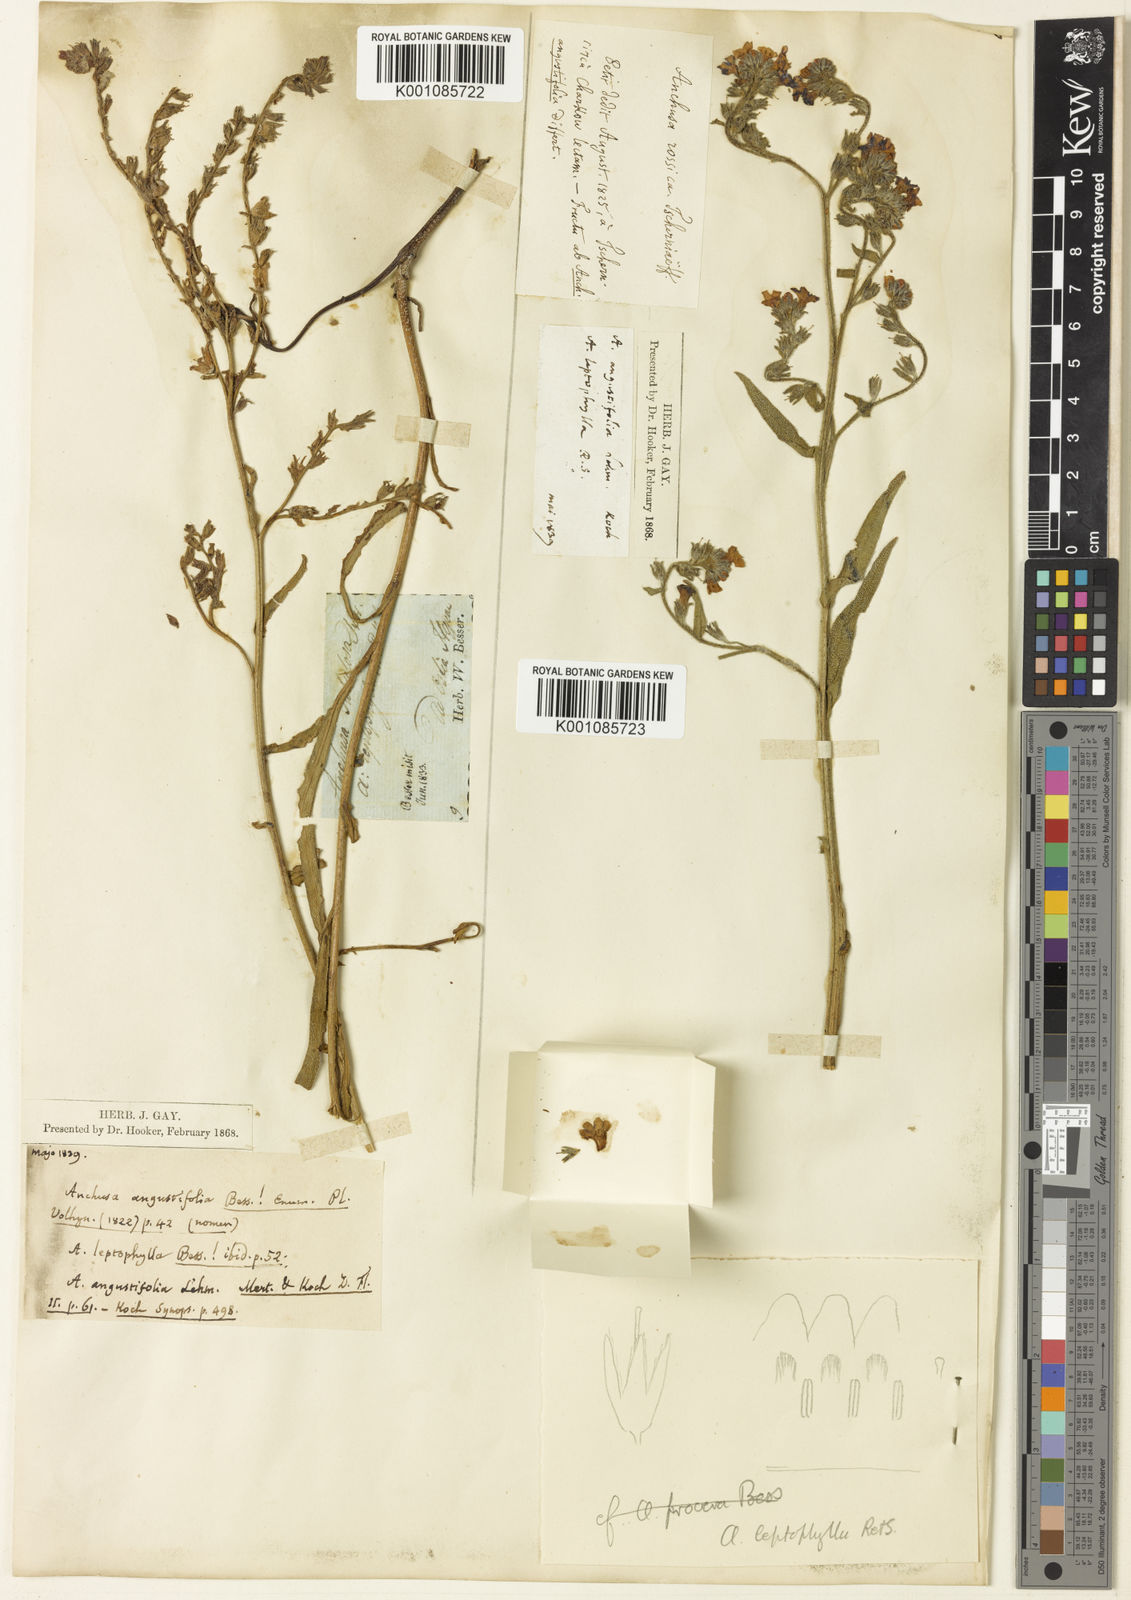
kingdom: Plantae
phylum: Tracheophyta
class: Magnoliopsida
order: Boraginales
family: Boraginaceae
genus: Anchusa
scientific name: Anchusa
